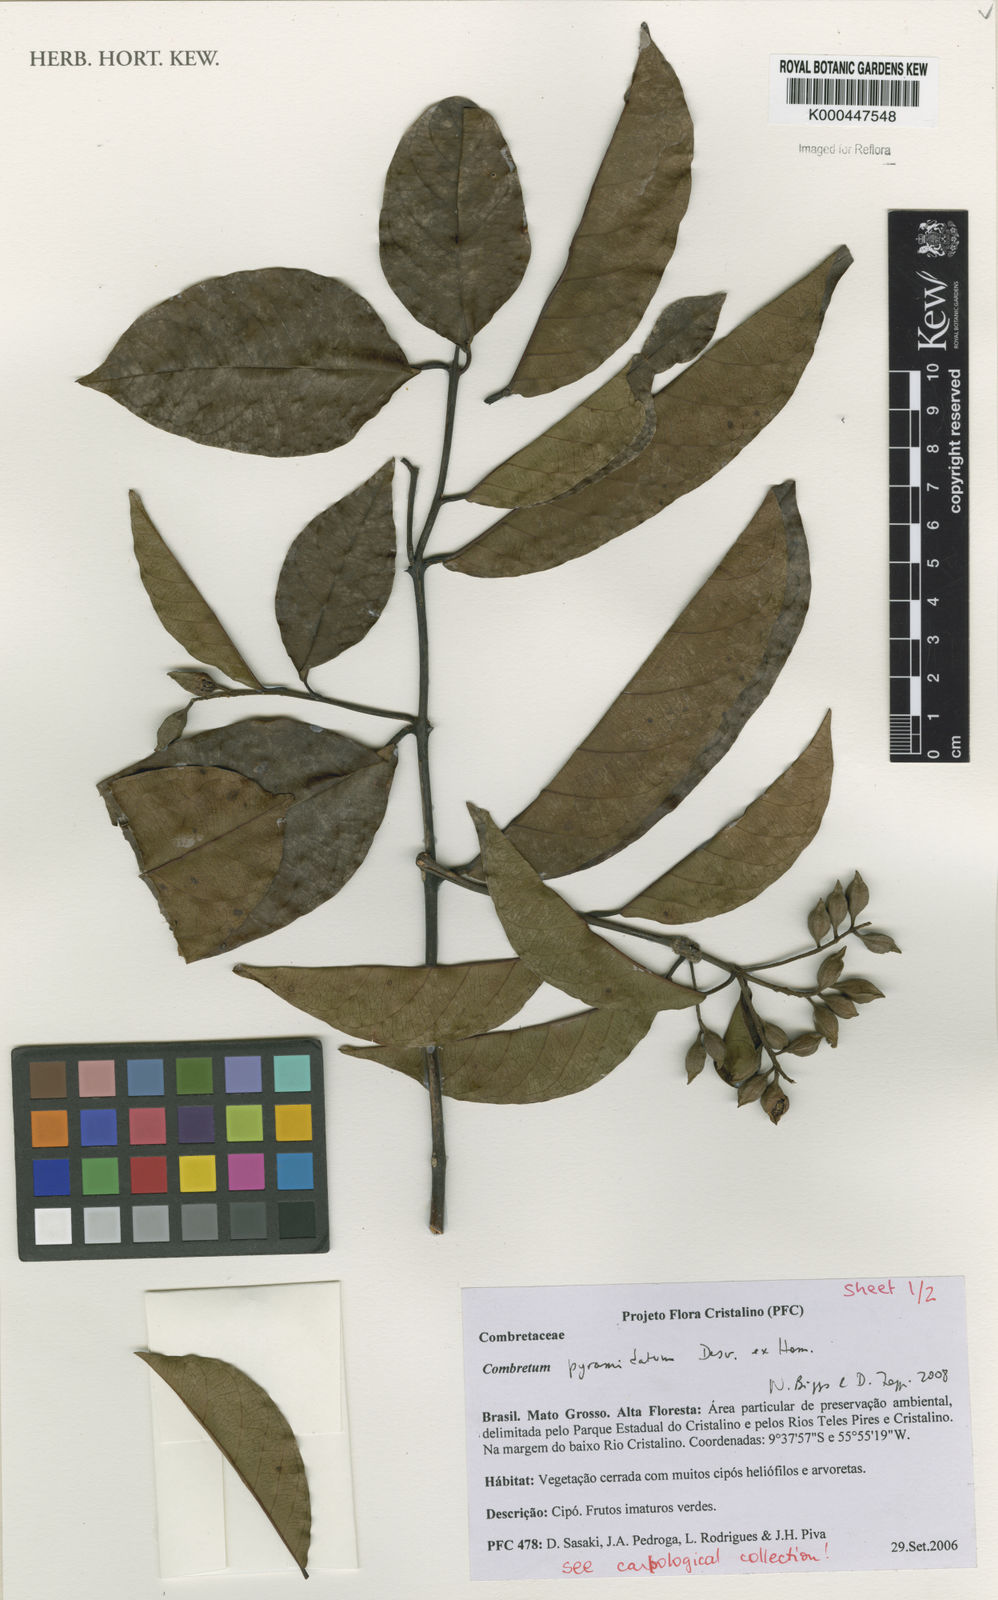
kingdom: Plantae
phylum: Tracheophyta
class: Magnoliopsida
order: Myrtales
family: Combretaceae
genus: Combretum
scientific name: Combretum pyramidatum
